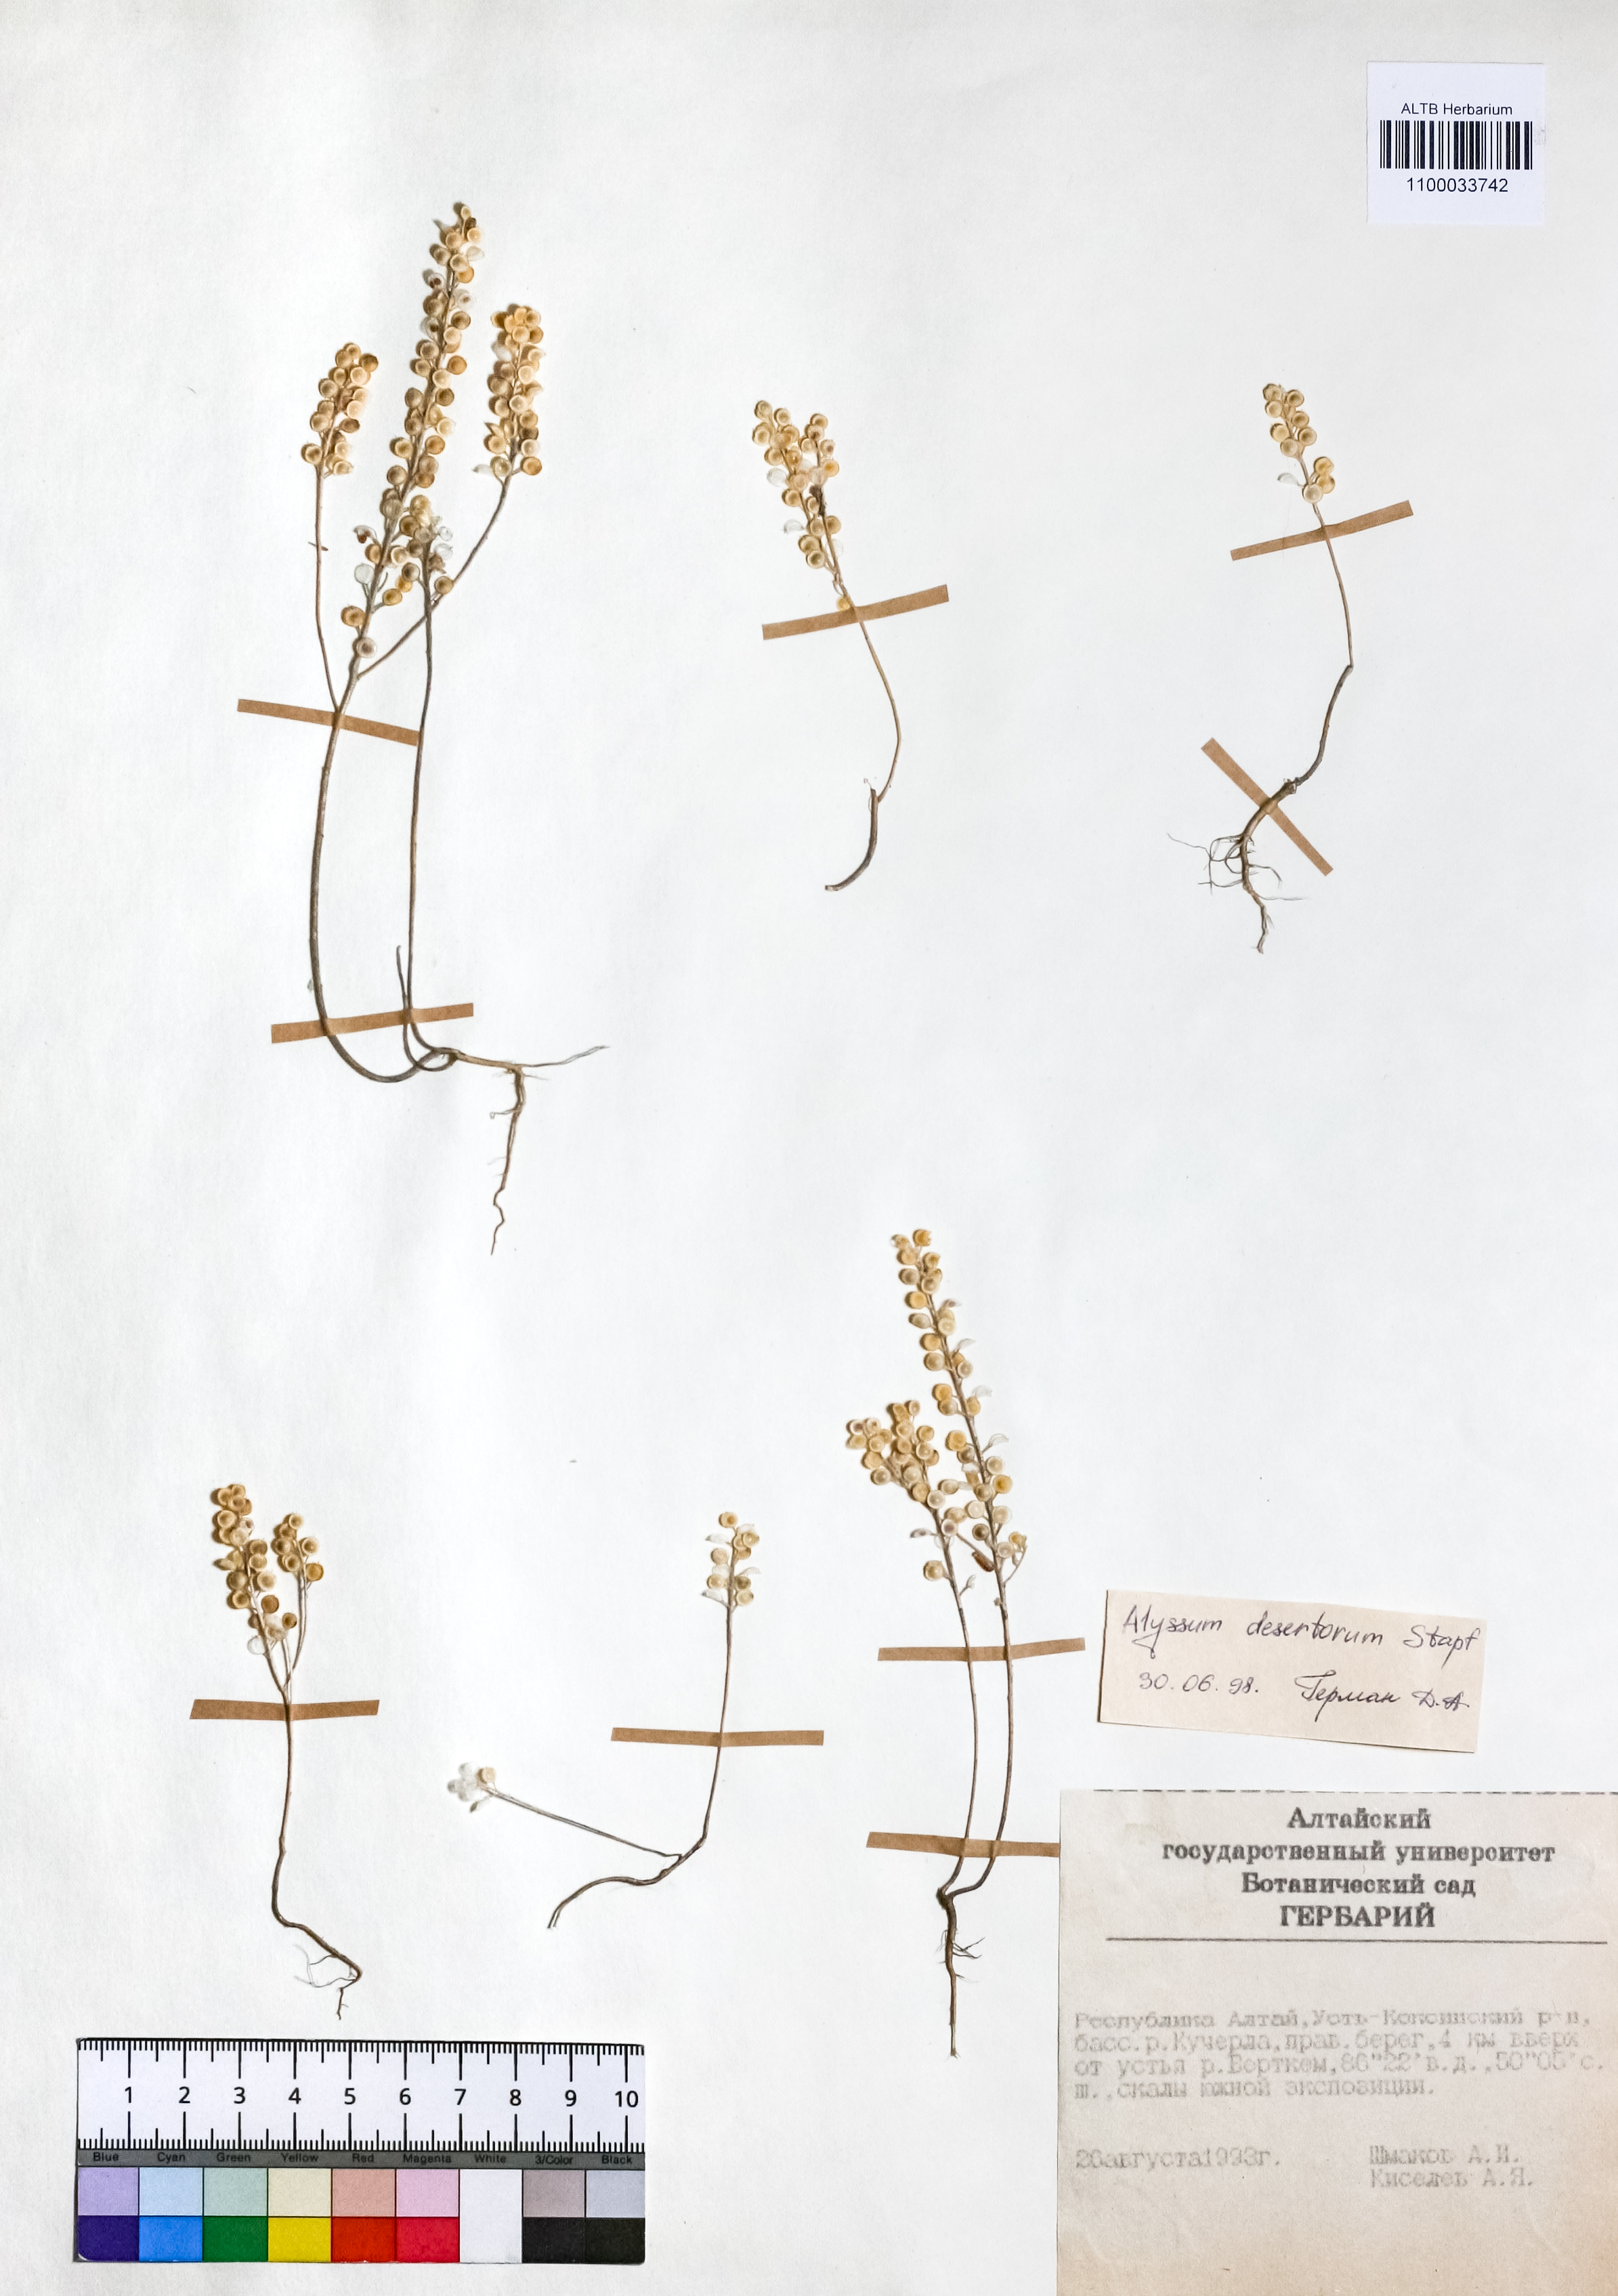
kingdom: Plantae
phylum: Tracheophyta
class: Magnoliopsida
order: Brassicales
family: Brassicaceae
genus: Alyssum
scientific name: Alyssum turkestanicum
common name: Desert alyssum
